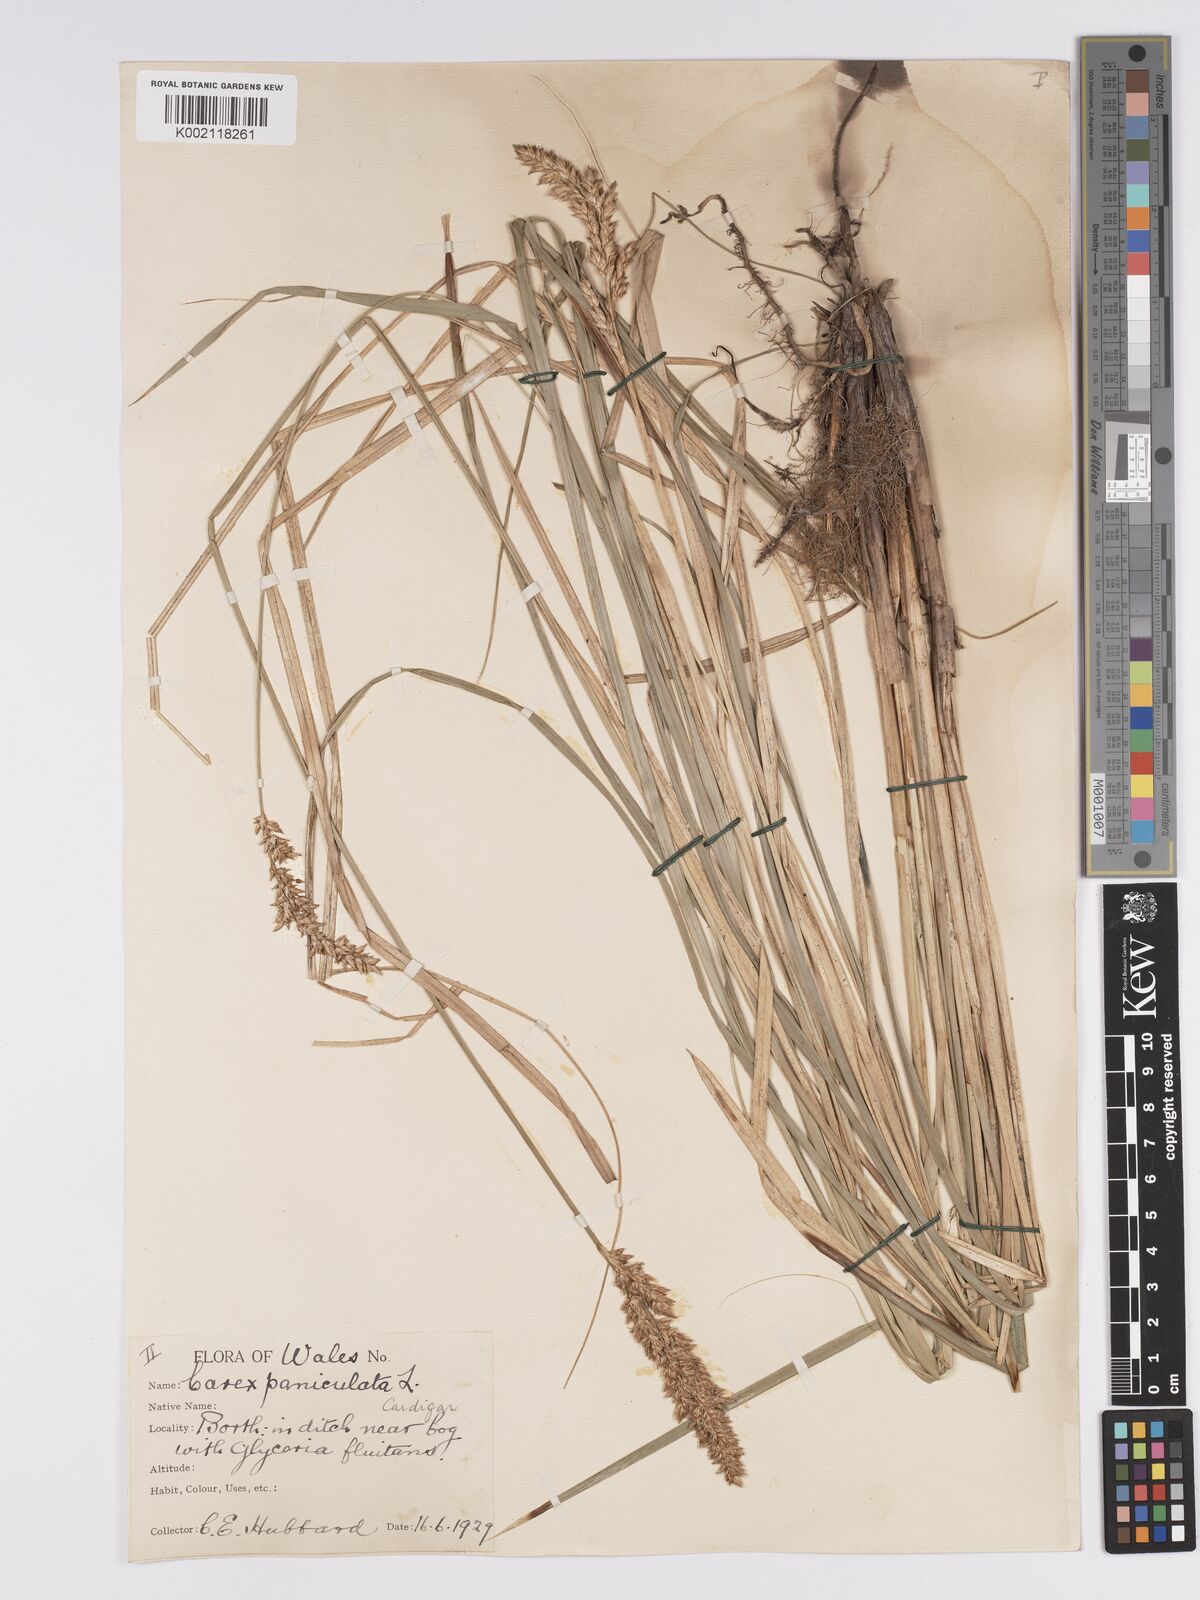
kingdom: Plantae
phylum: Tracheophyta
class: Liliopsida
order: Poales
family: Cyperaceae
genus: Carex
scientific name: Carex paniculata
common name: Greater tussock-sedge
